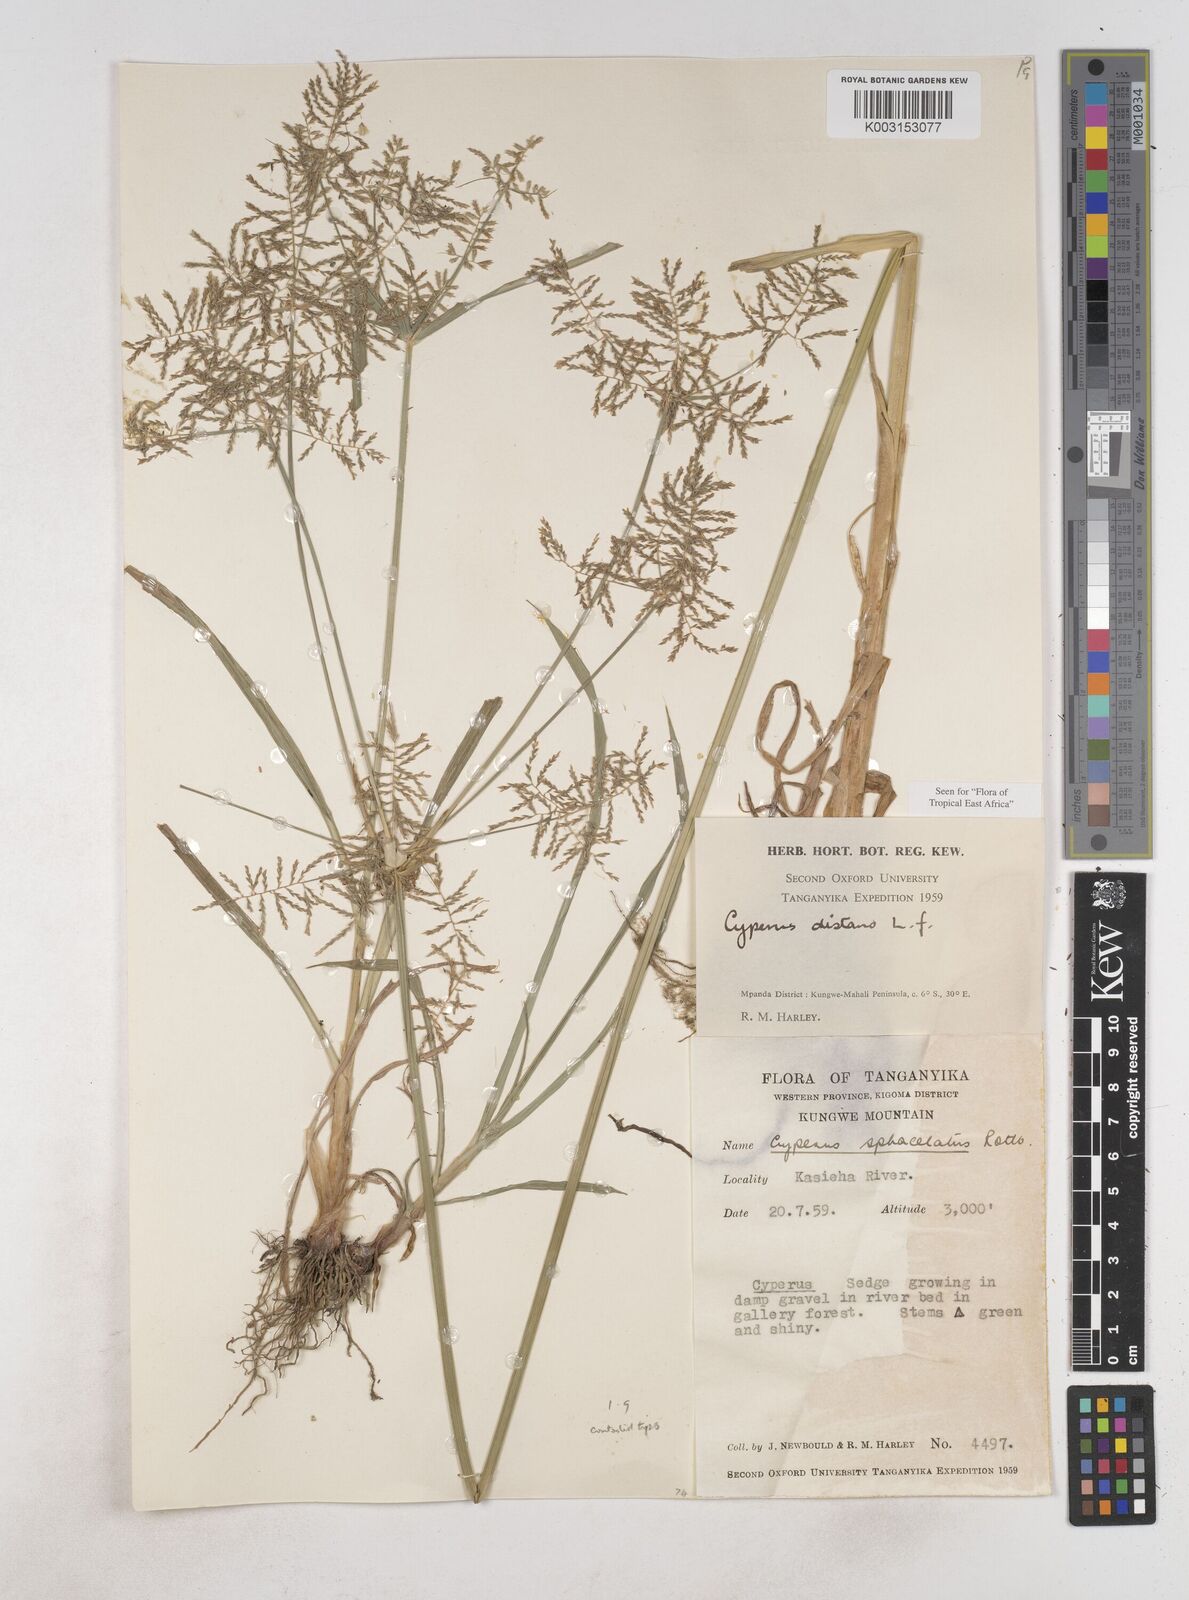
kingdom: Plantae
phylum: Tracheophyta
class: Liliopsida
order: Poales
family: Cyperaceae
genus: Cyperus
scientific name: Cyperus distans
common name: Slender cyperus
